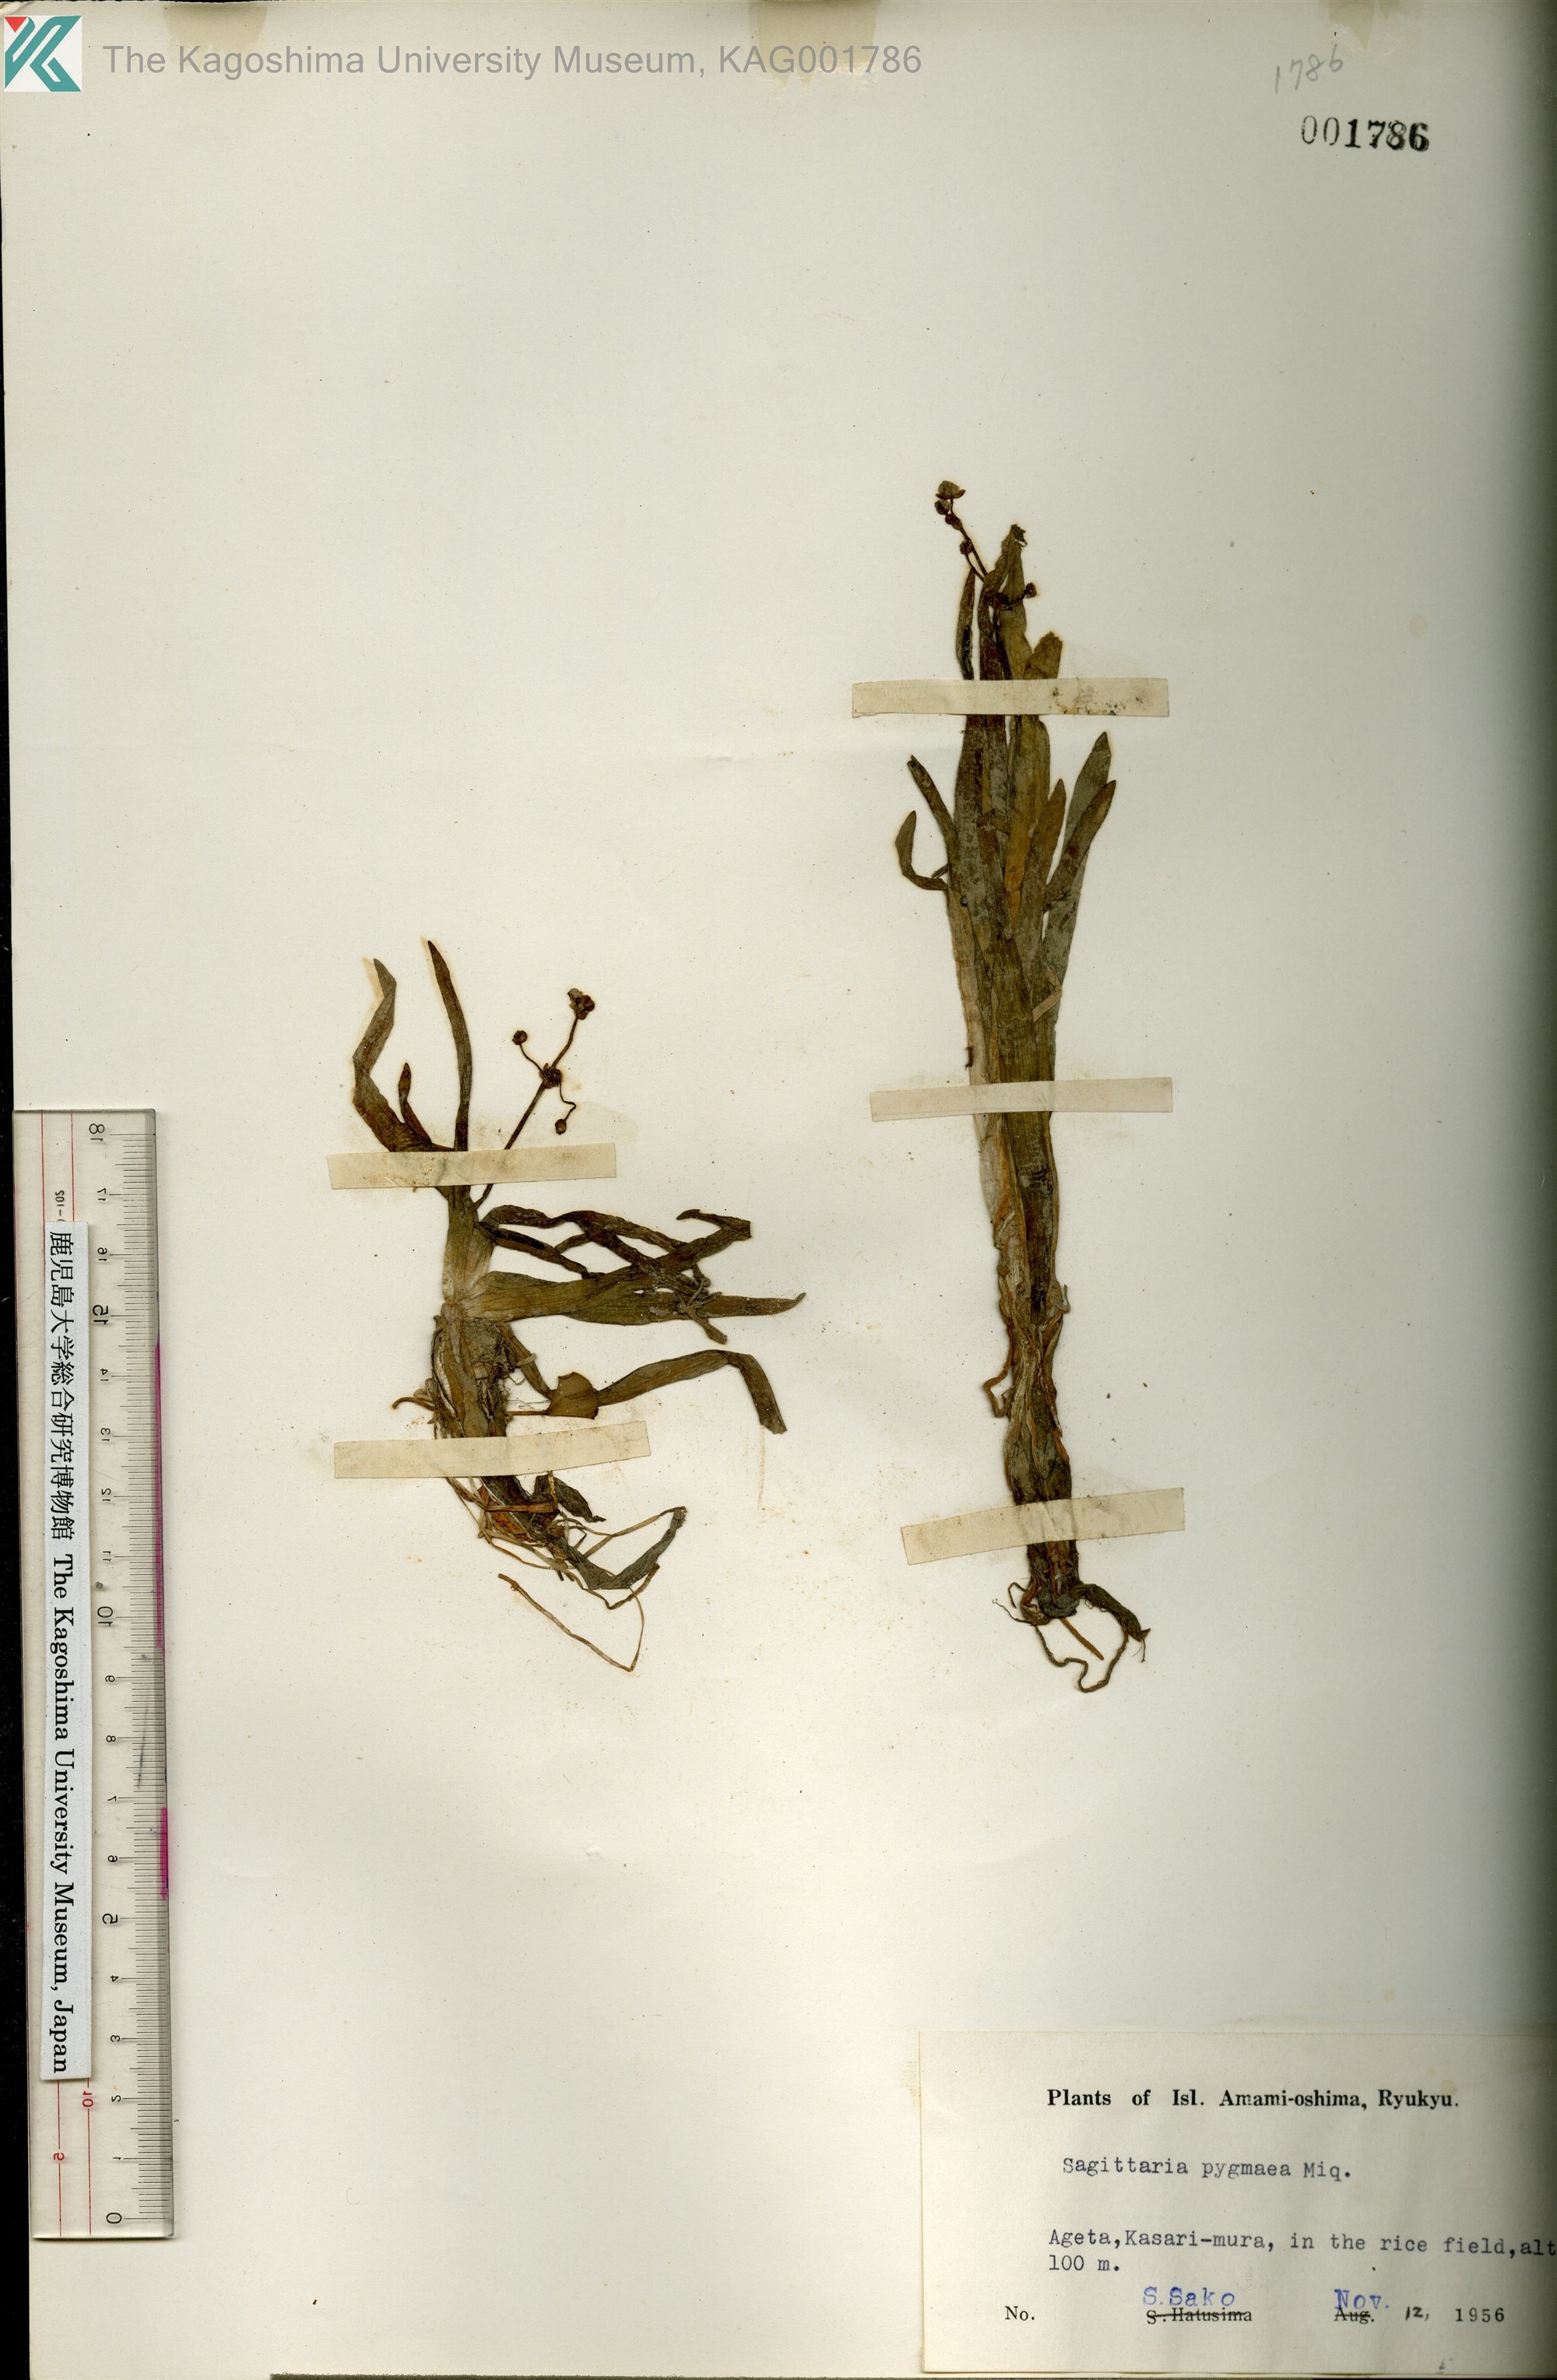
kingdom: Plantae
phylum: Tracheophyta
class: Liliopsida
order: Alismatales
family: Alismataceae
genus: Sagittaria
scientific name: Sagittaria pygmaea
